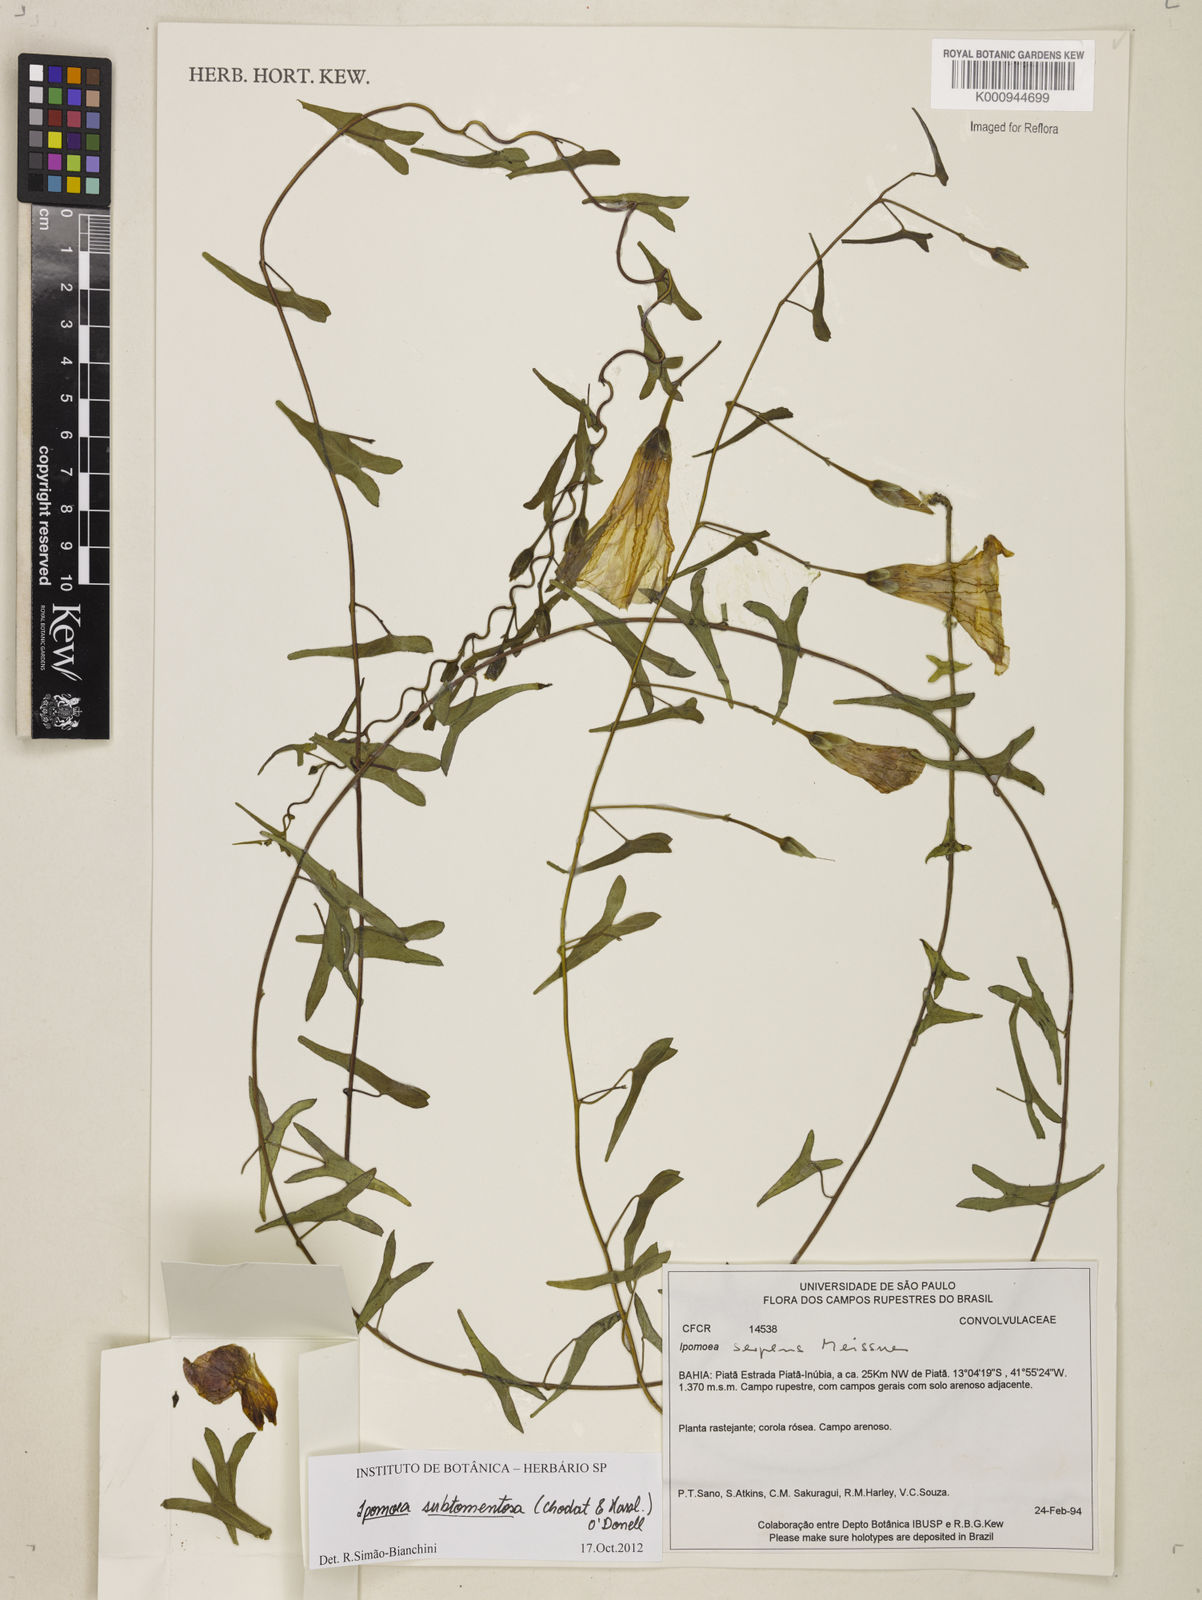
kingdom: Plantae
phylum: Tracheophyta
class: Magnoliopsida
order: Solanales
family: Convolvulaceae
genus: Ipomoea
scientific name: Ipomoea maurandioides
